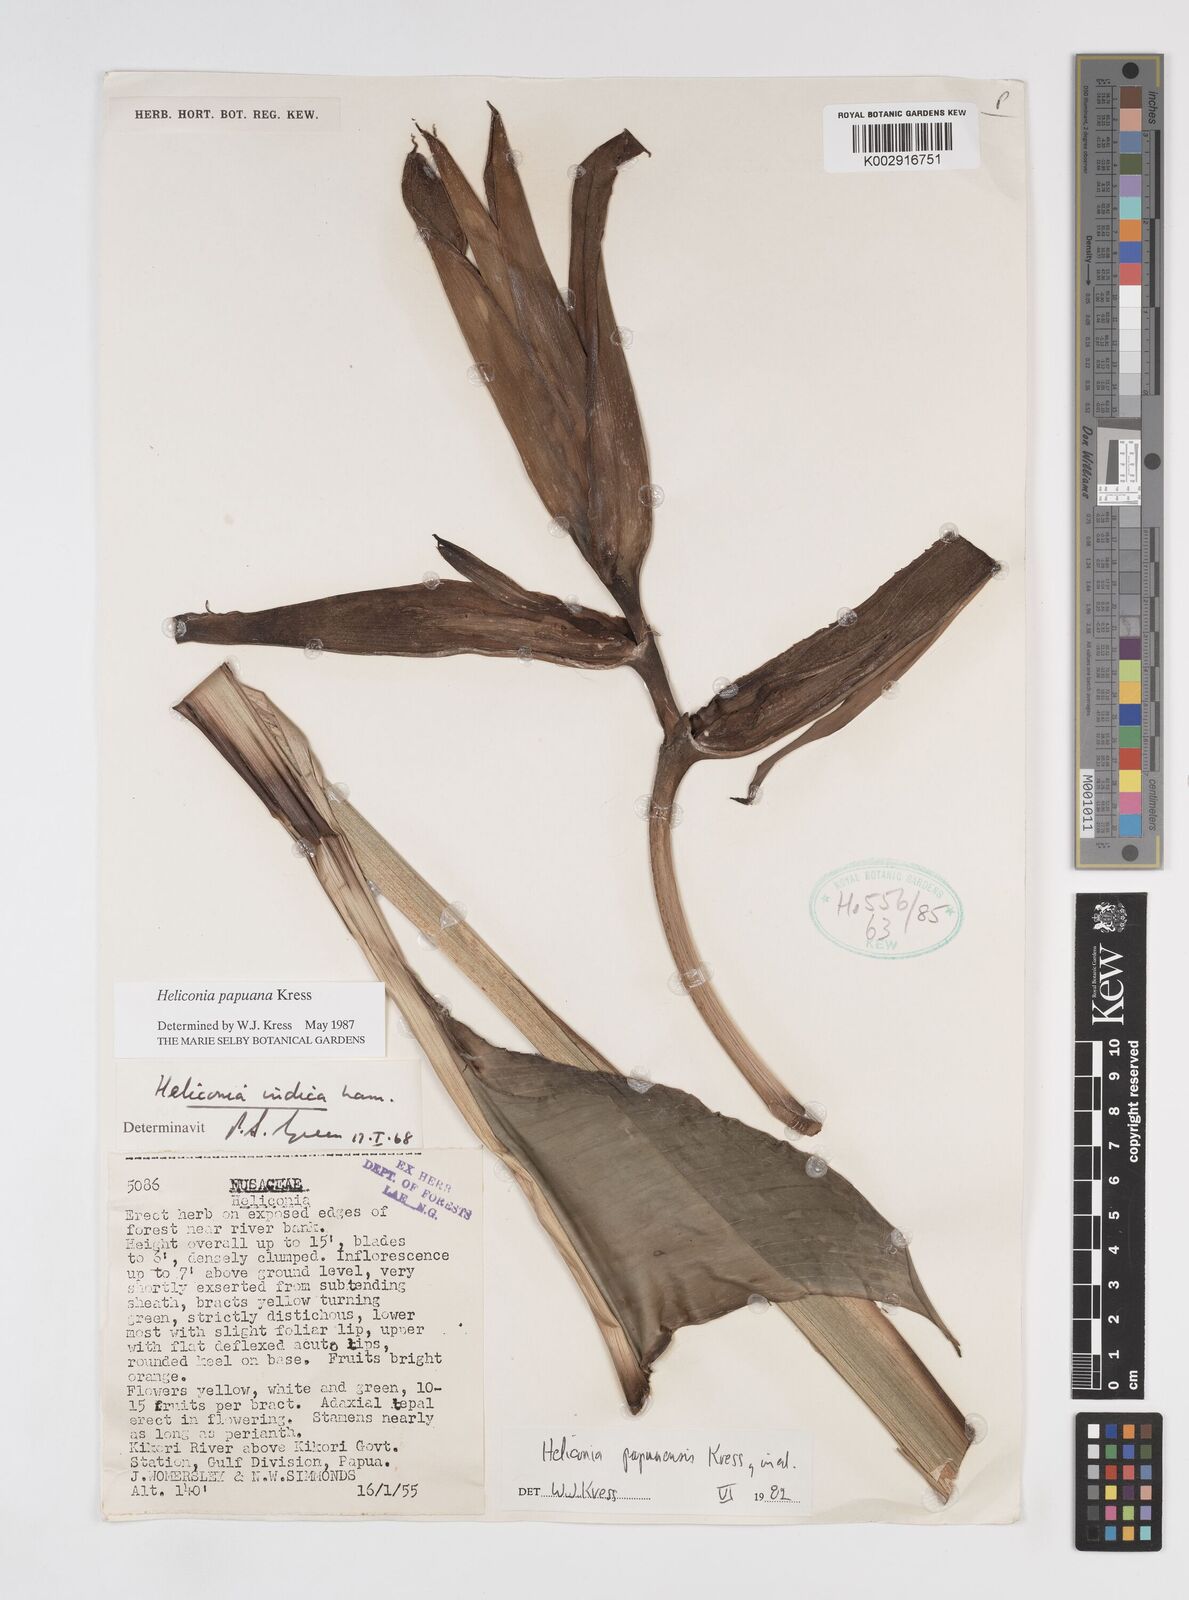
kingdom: Plantae
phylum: Tracheophyta
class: Liliopsida
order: Zingiberales
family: Heliconiaceae
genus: Heliconia
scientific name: Heliconia papuana
